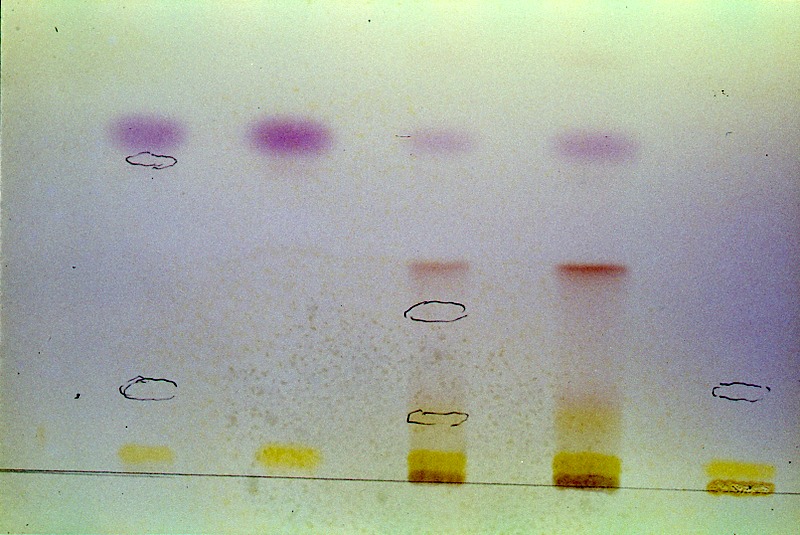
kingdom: Fungi
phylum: Basidiomycota
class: Agaricomycetes
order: Agaricales
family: Agaricaceae
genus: Cystolepiota
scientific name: Cystolepiota bucknallii
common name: Lilac dapperling
